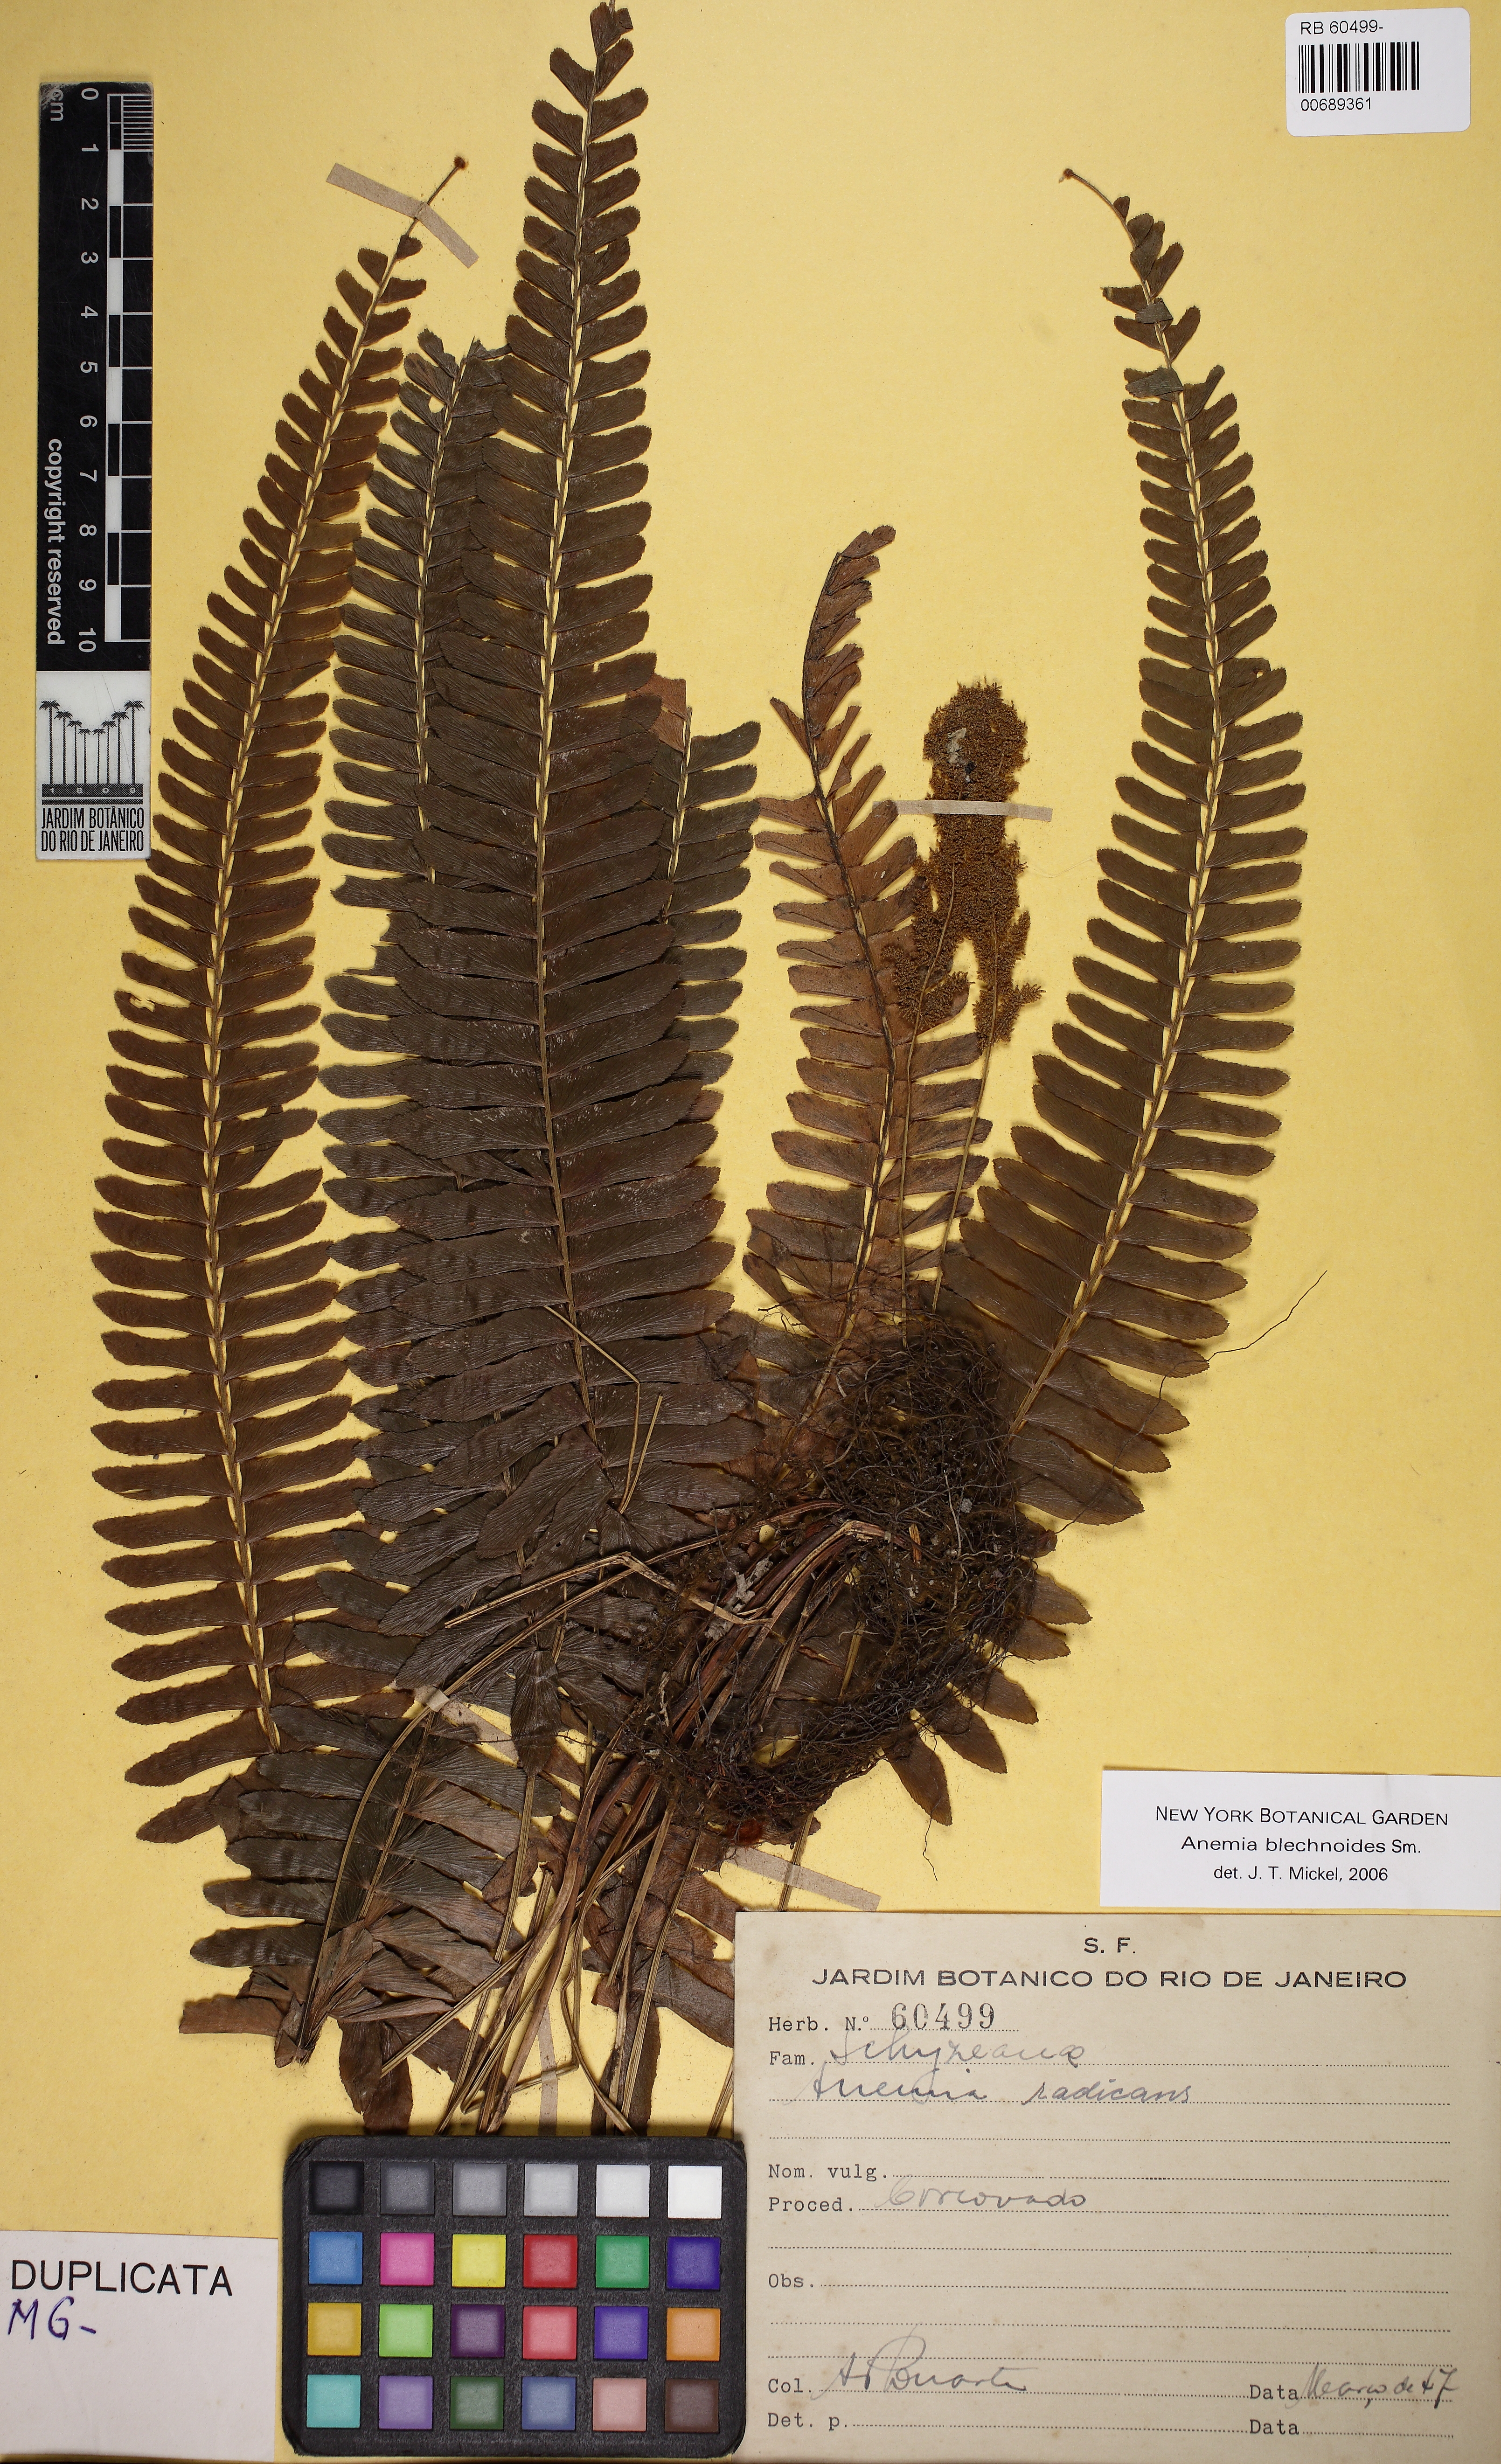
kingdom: Plantae
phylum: Tracheophyta
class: Polypodiopsida
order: Schizaeales
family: Anemiaceae
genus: Anemia
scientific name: Anemia blechnoides
